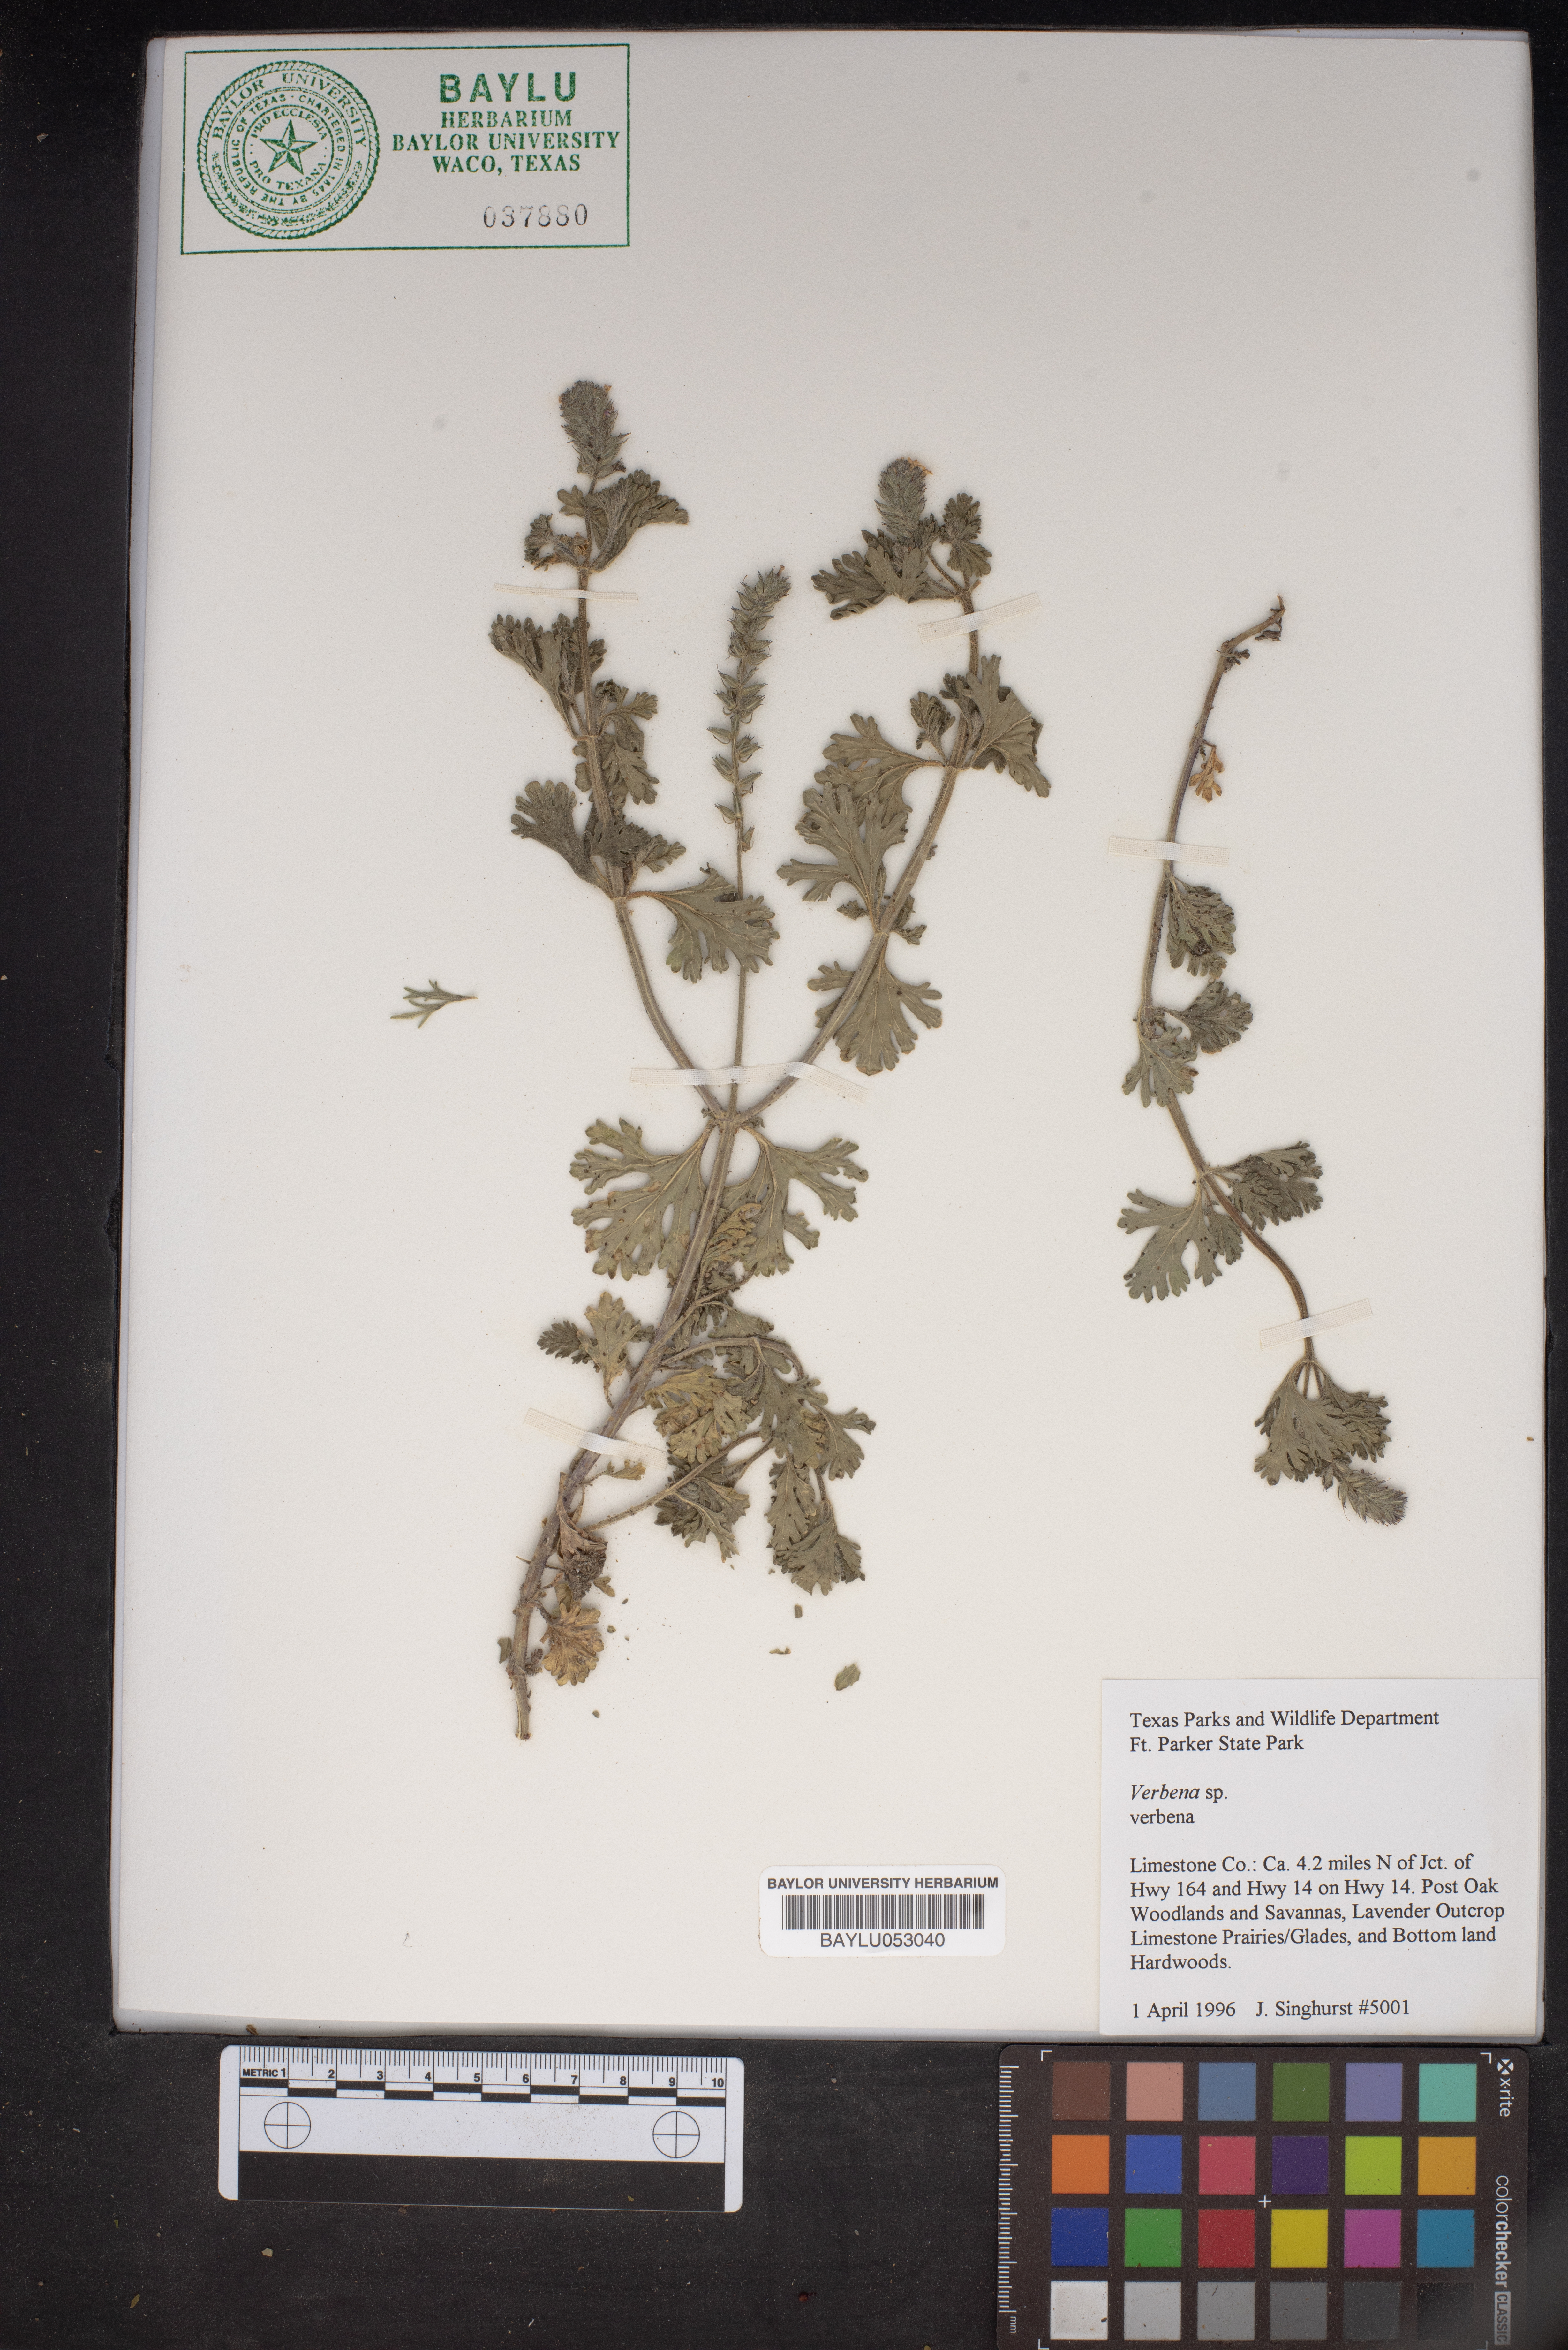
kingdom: Plantae
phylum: Tracheophyta
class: Magnoliopsida
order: Lamiales
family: Verbenaceae
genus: Verbena
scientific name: Verbena
